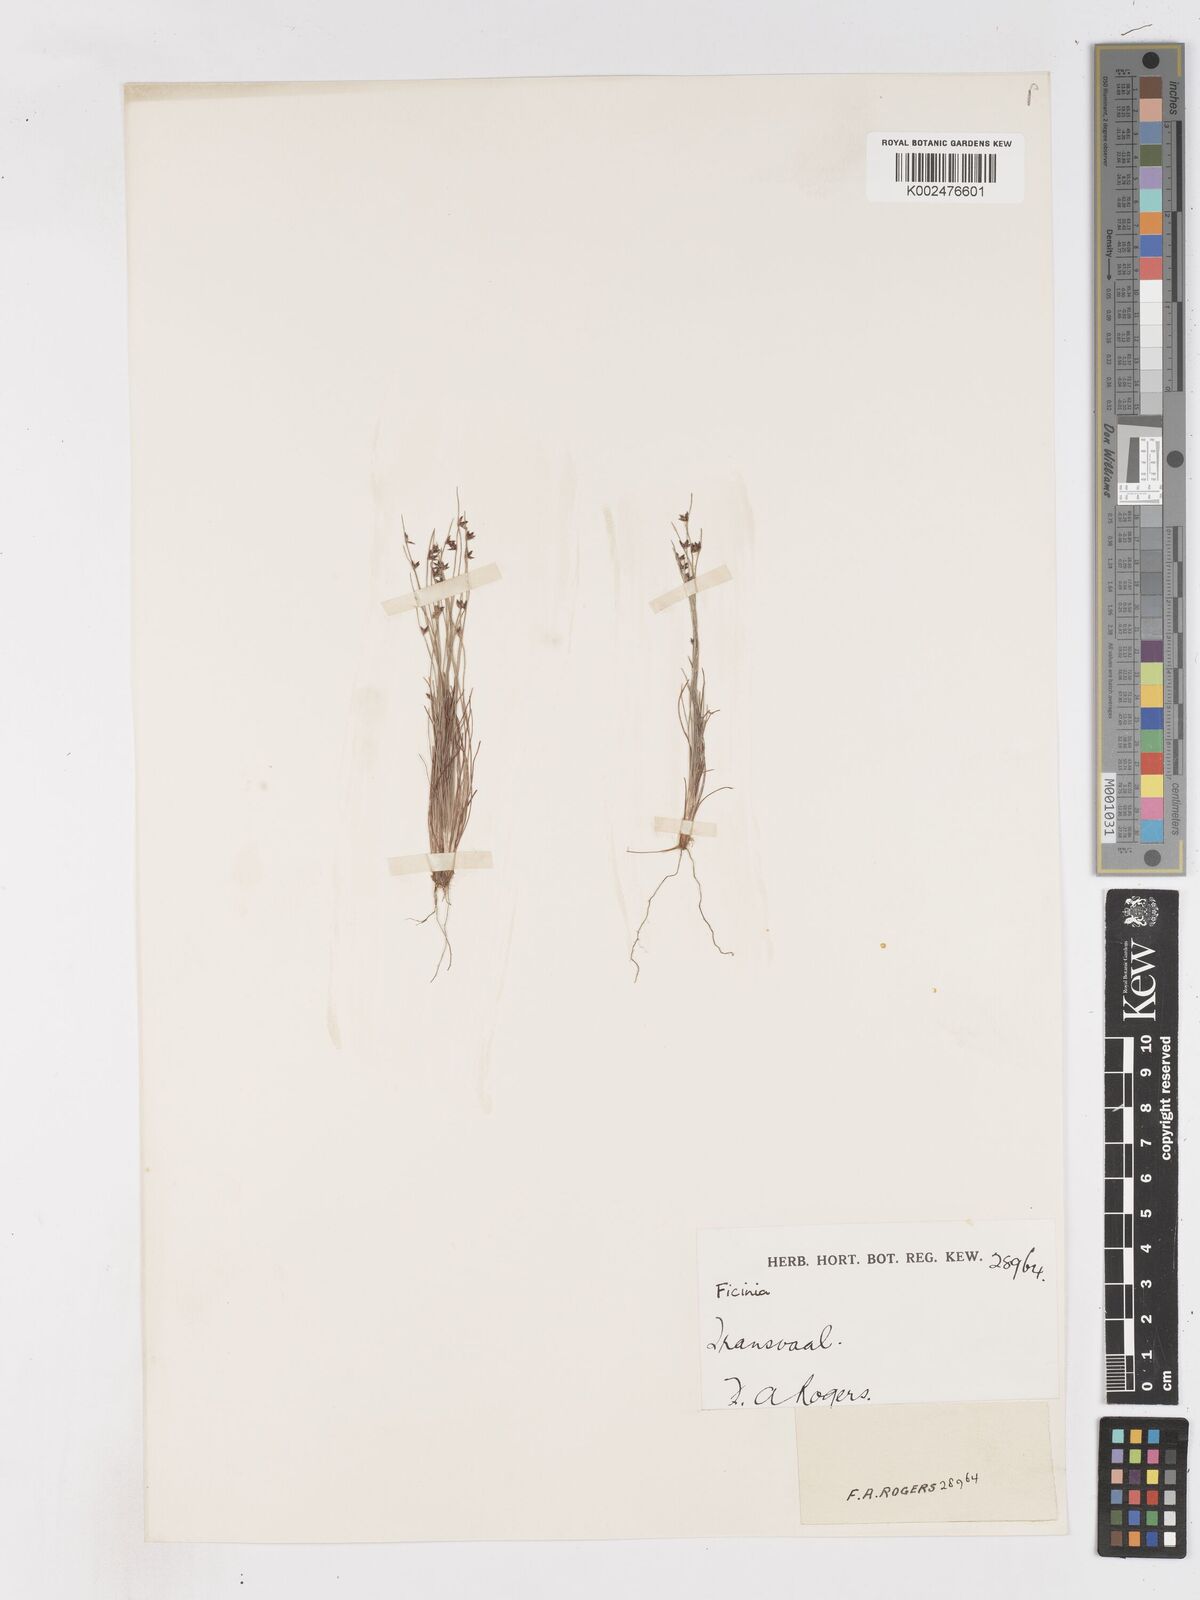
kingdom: Plantae
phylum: Tracheophyta
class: Liliopsida
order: Poales
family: Cyperaceae
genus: Ficinia
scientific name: Ficinia
